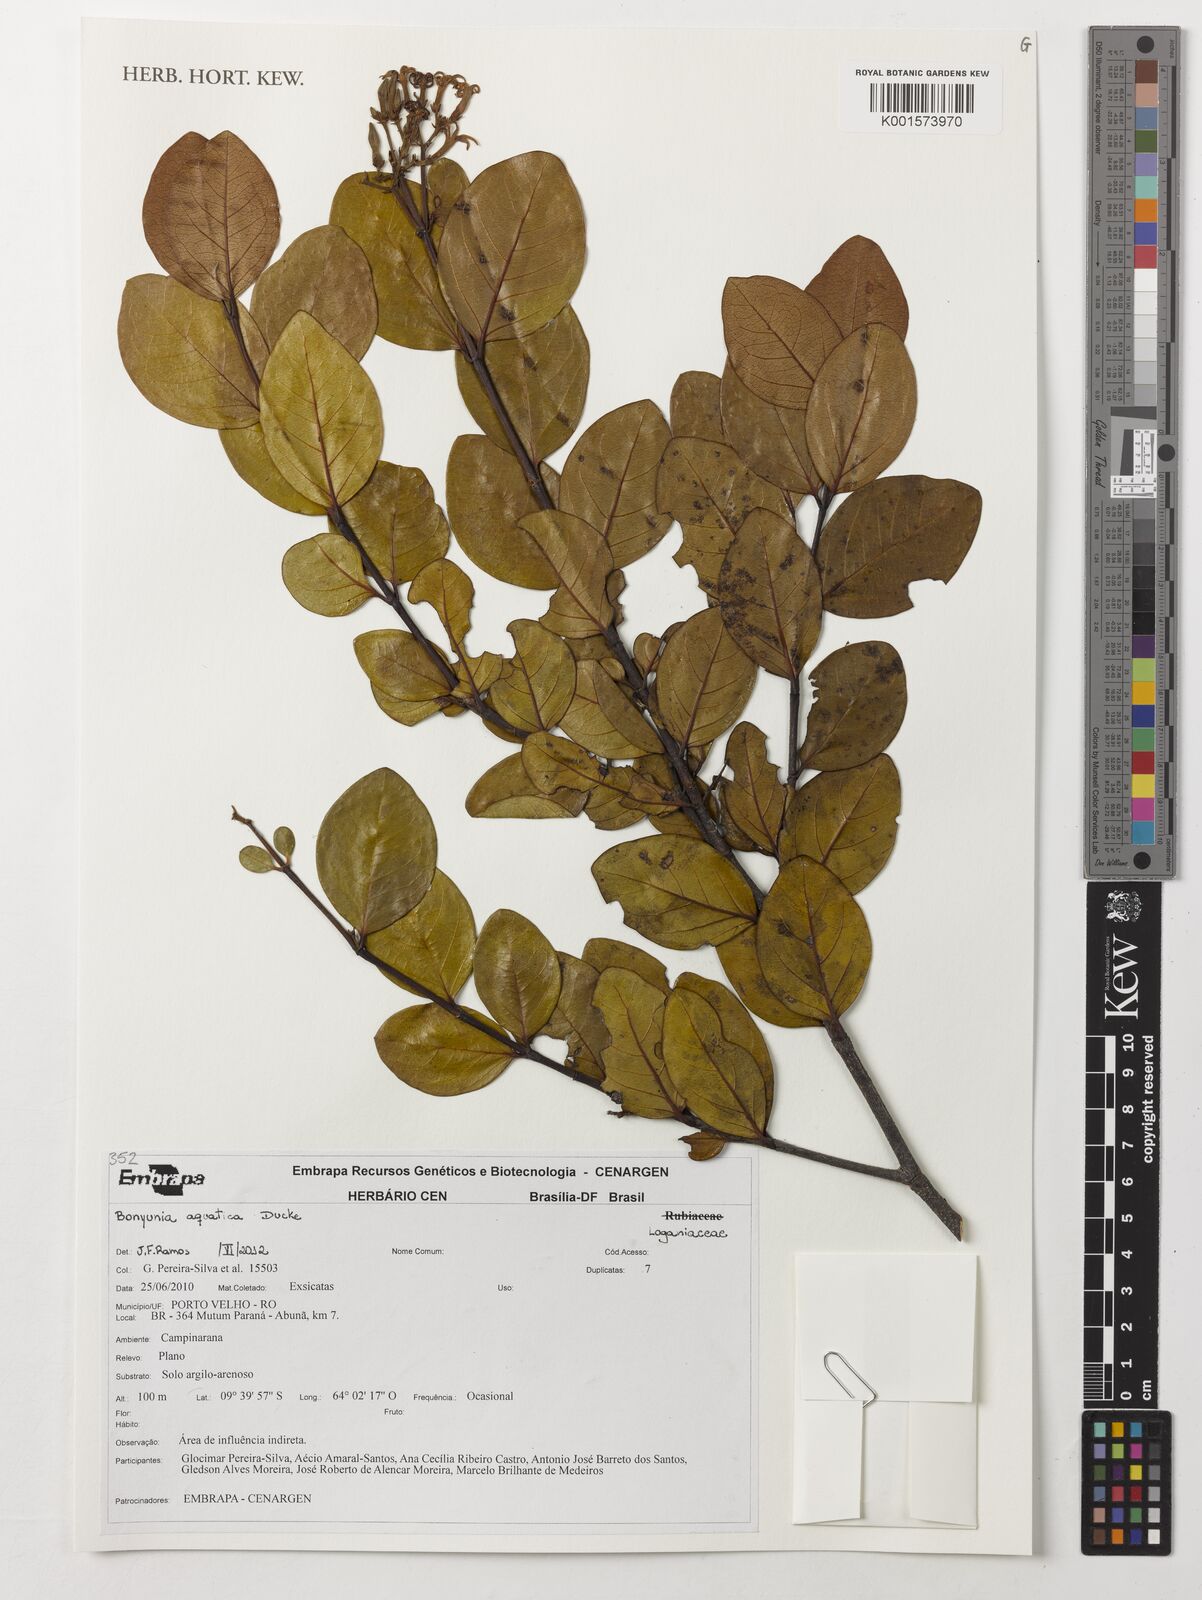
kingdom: Plantae
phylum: Tracheophyta
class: Magnoliopsida
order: Gentianales
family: Loganiaceae
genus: Bonyunia
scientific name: Bonyunia aquatica
